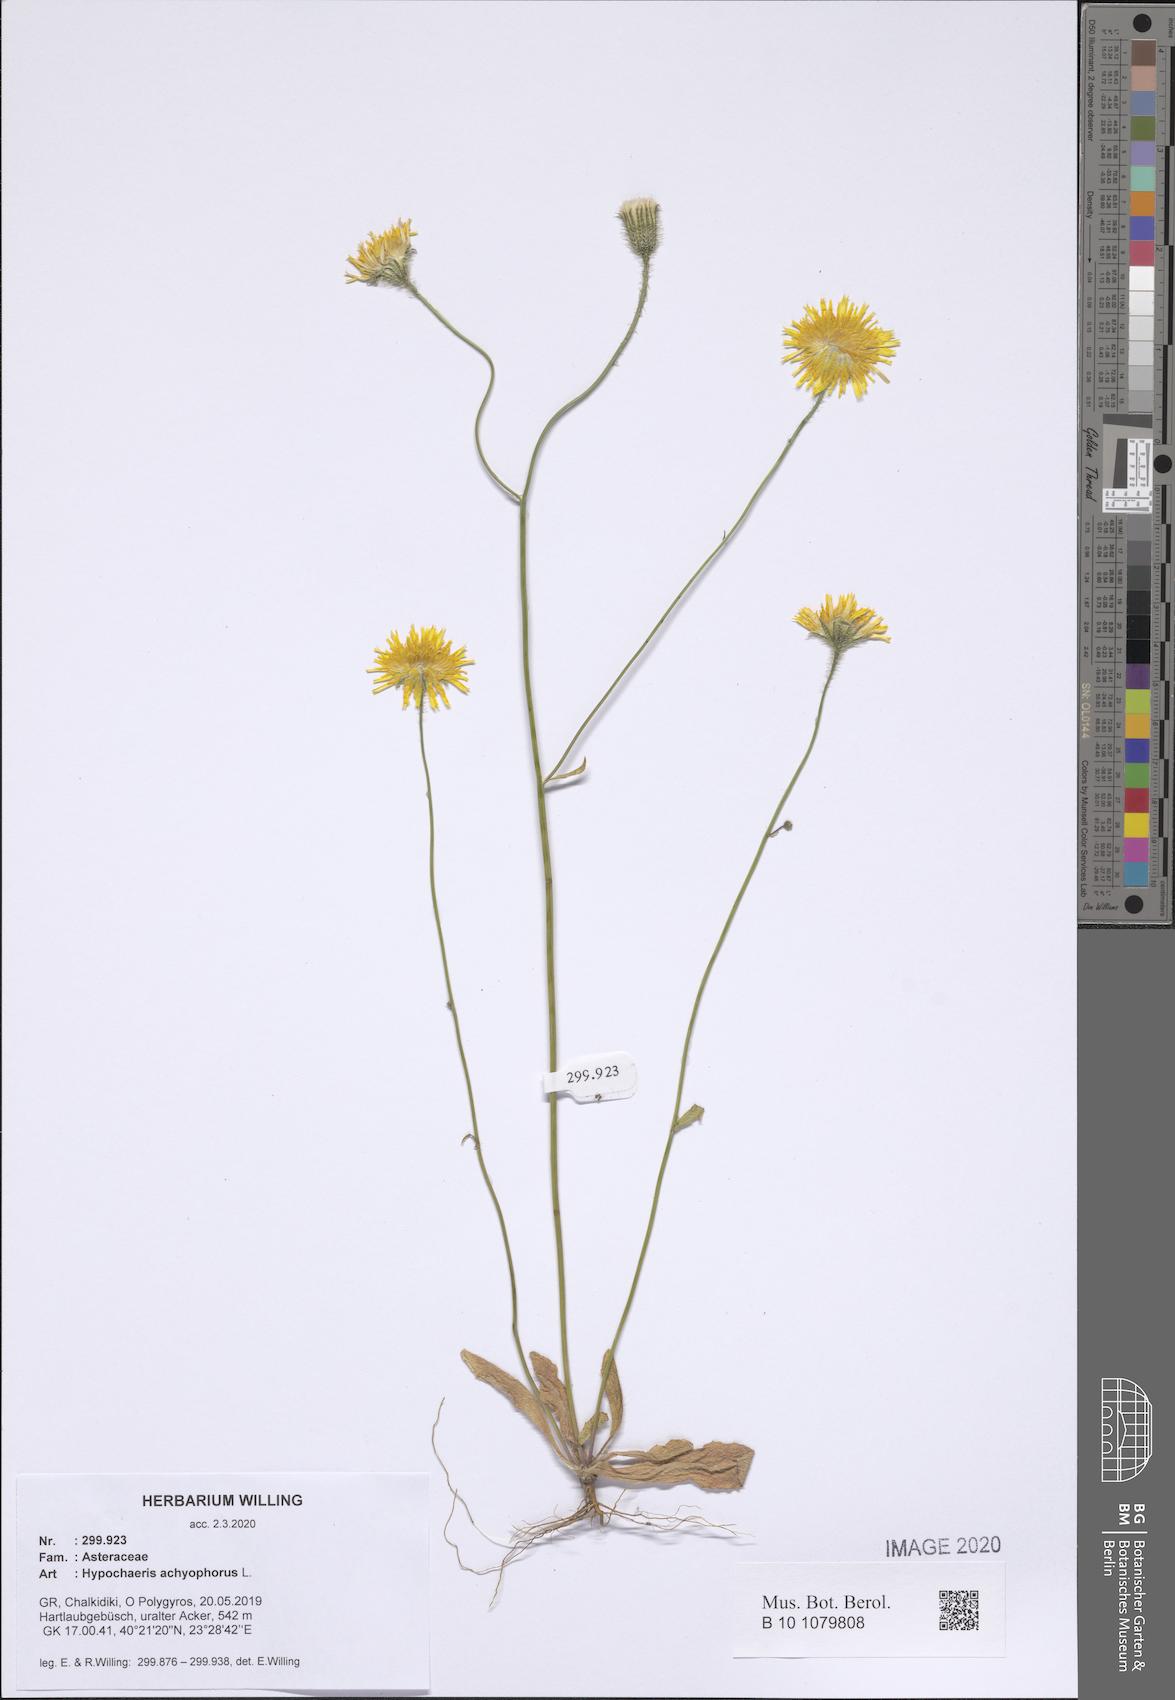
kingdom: Plantae
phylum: Tracheophyta
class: Magnoliopsida
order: Asterales
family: Asteraceae
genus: Achyrophorus
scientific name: Achyrophorus valdesii
